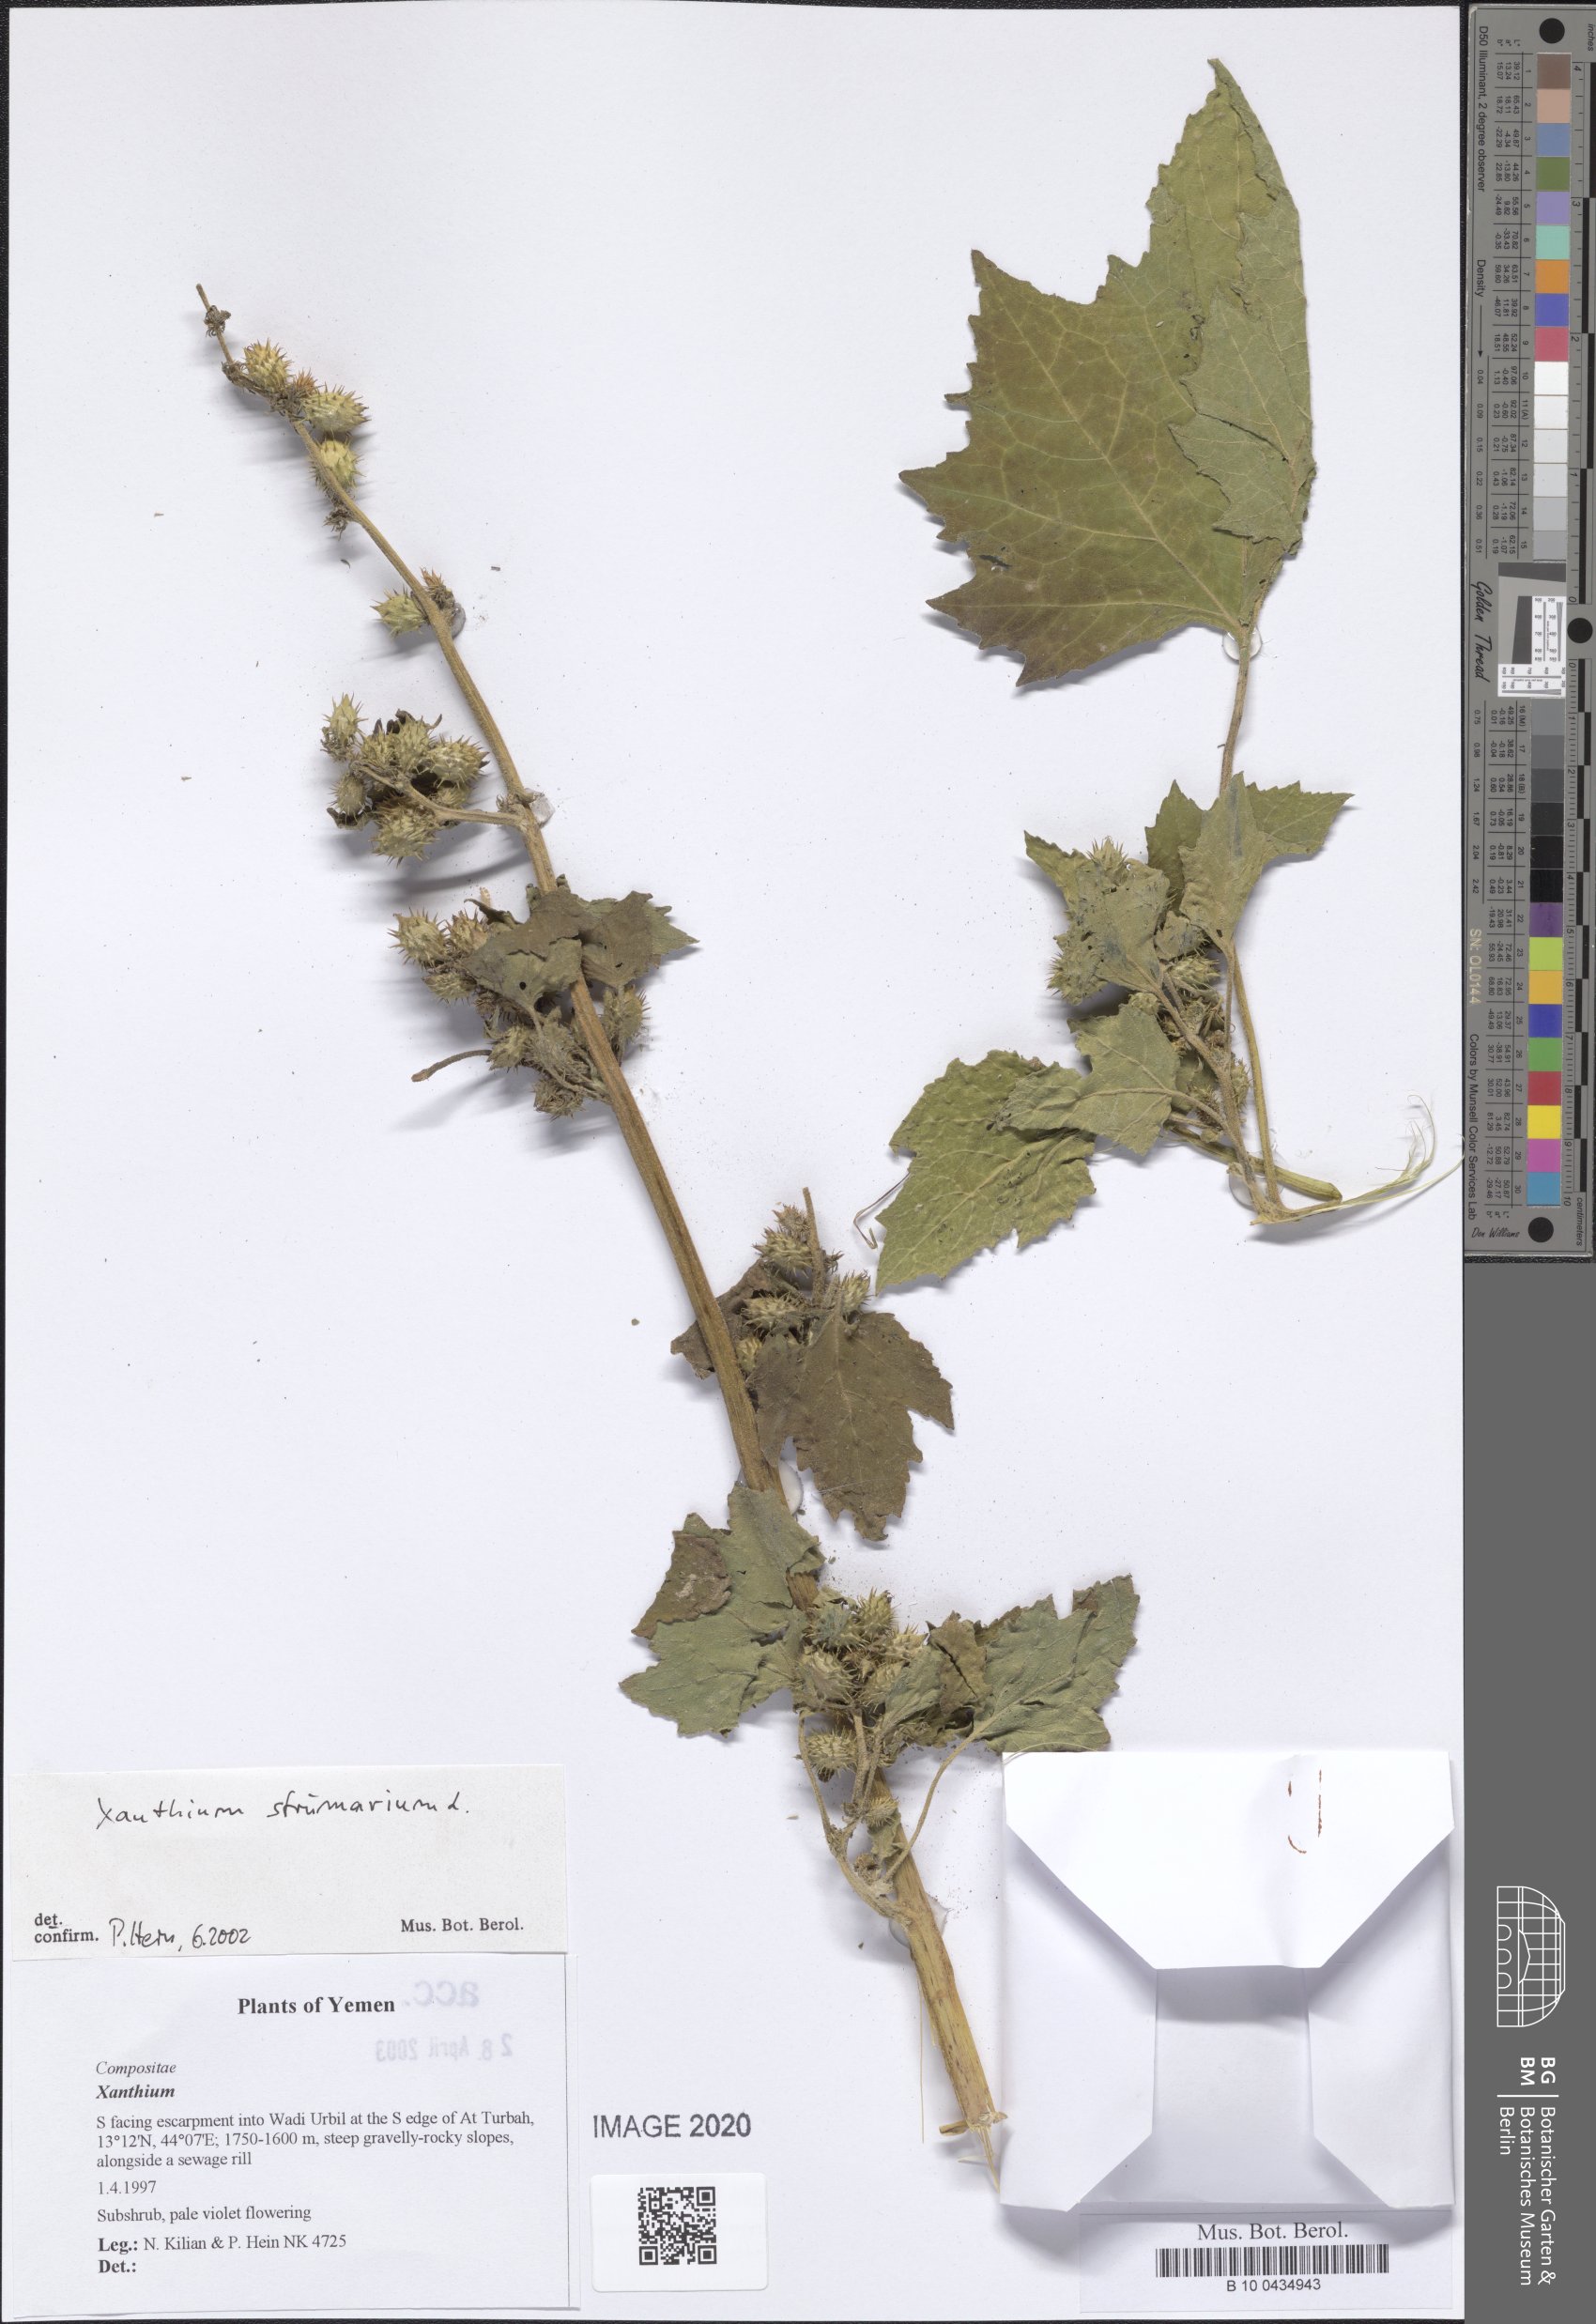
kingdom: Plantae
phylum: Tracheophyta
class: Magnoliopsida
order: Asterales
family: Asteraceae
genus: Senecio
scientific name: Senecio
